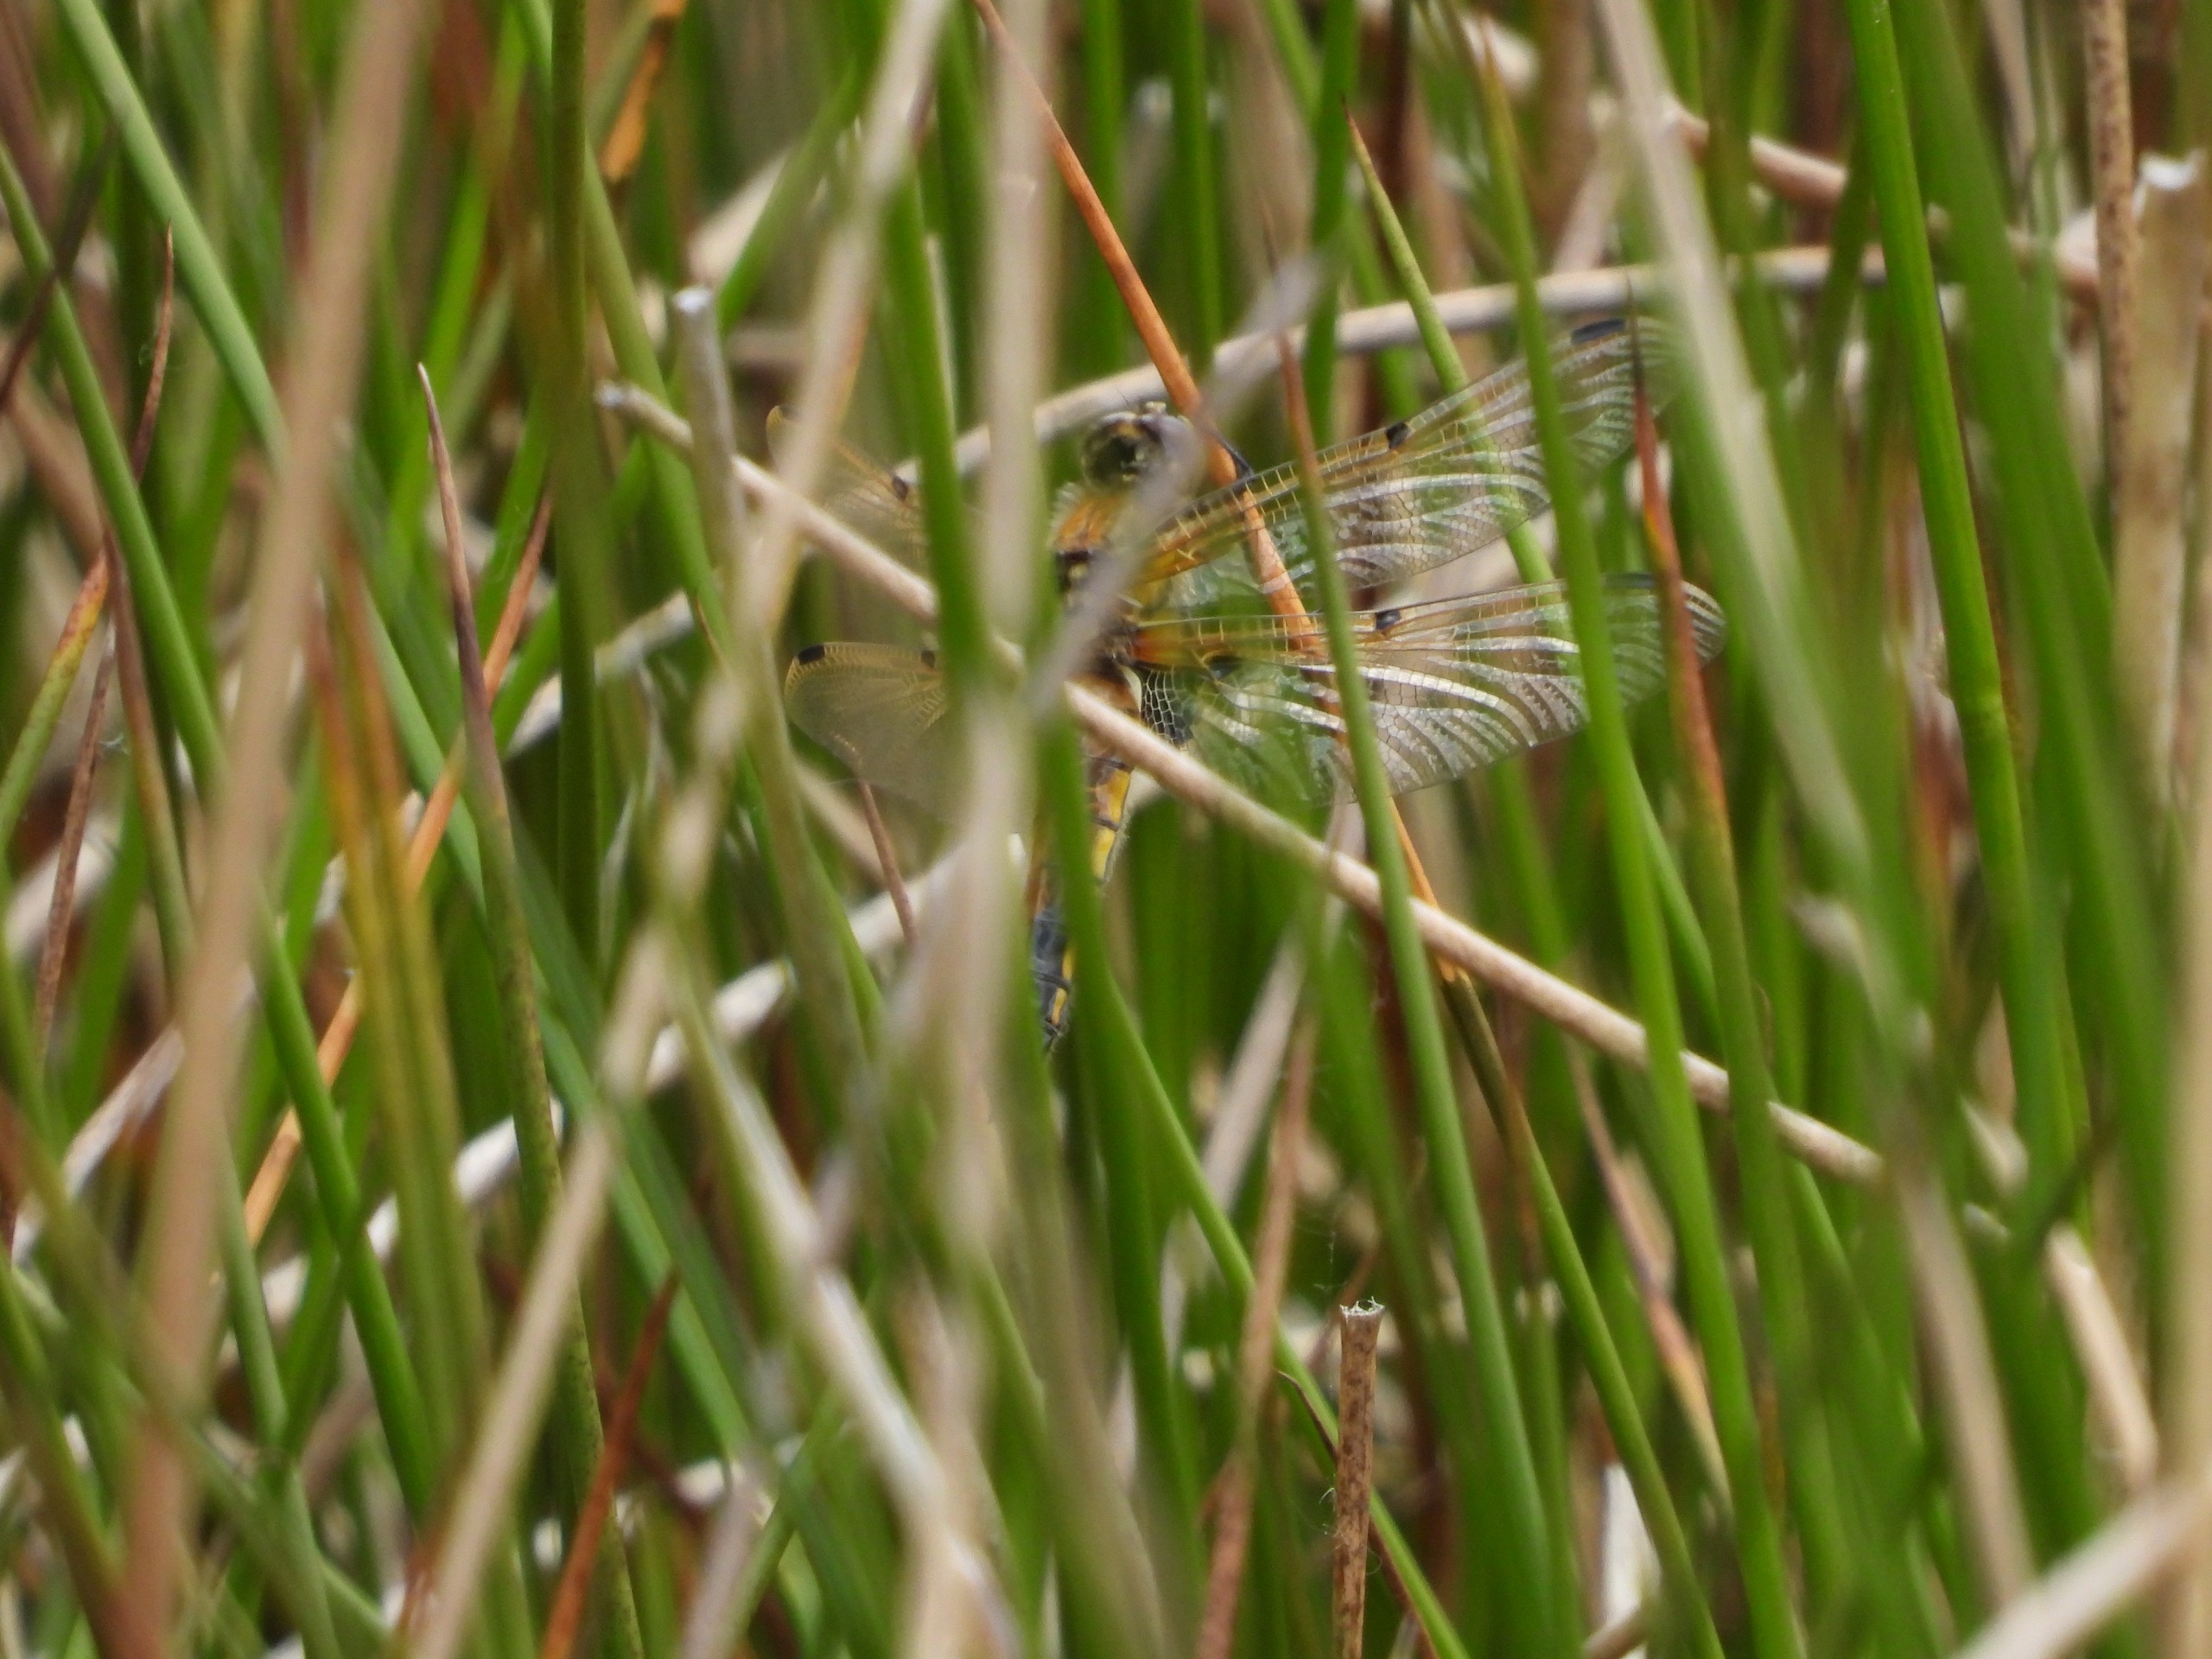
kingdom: Animalia
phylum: Arthropoda
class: Insecta
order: Odonata
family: Libellulidae
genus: Libellula
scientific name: Libellula quadrimaculata
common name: Fireplettet libel
